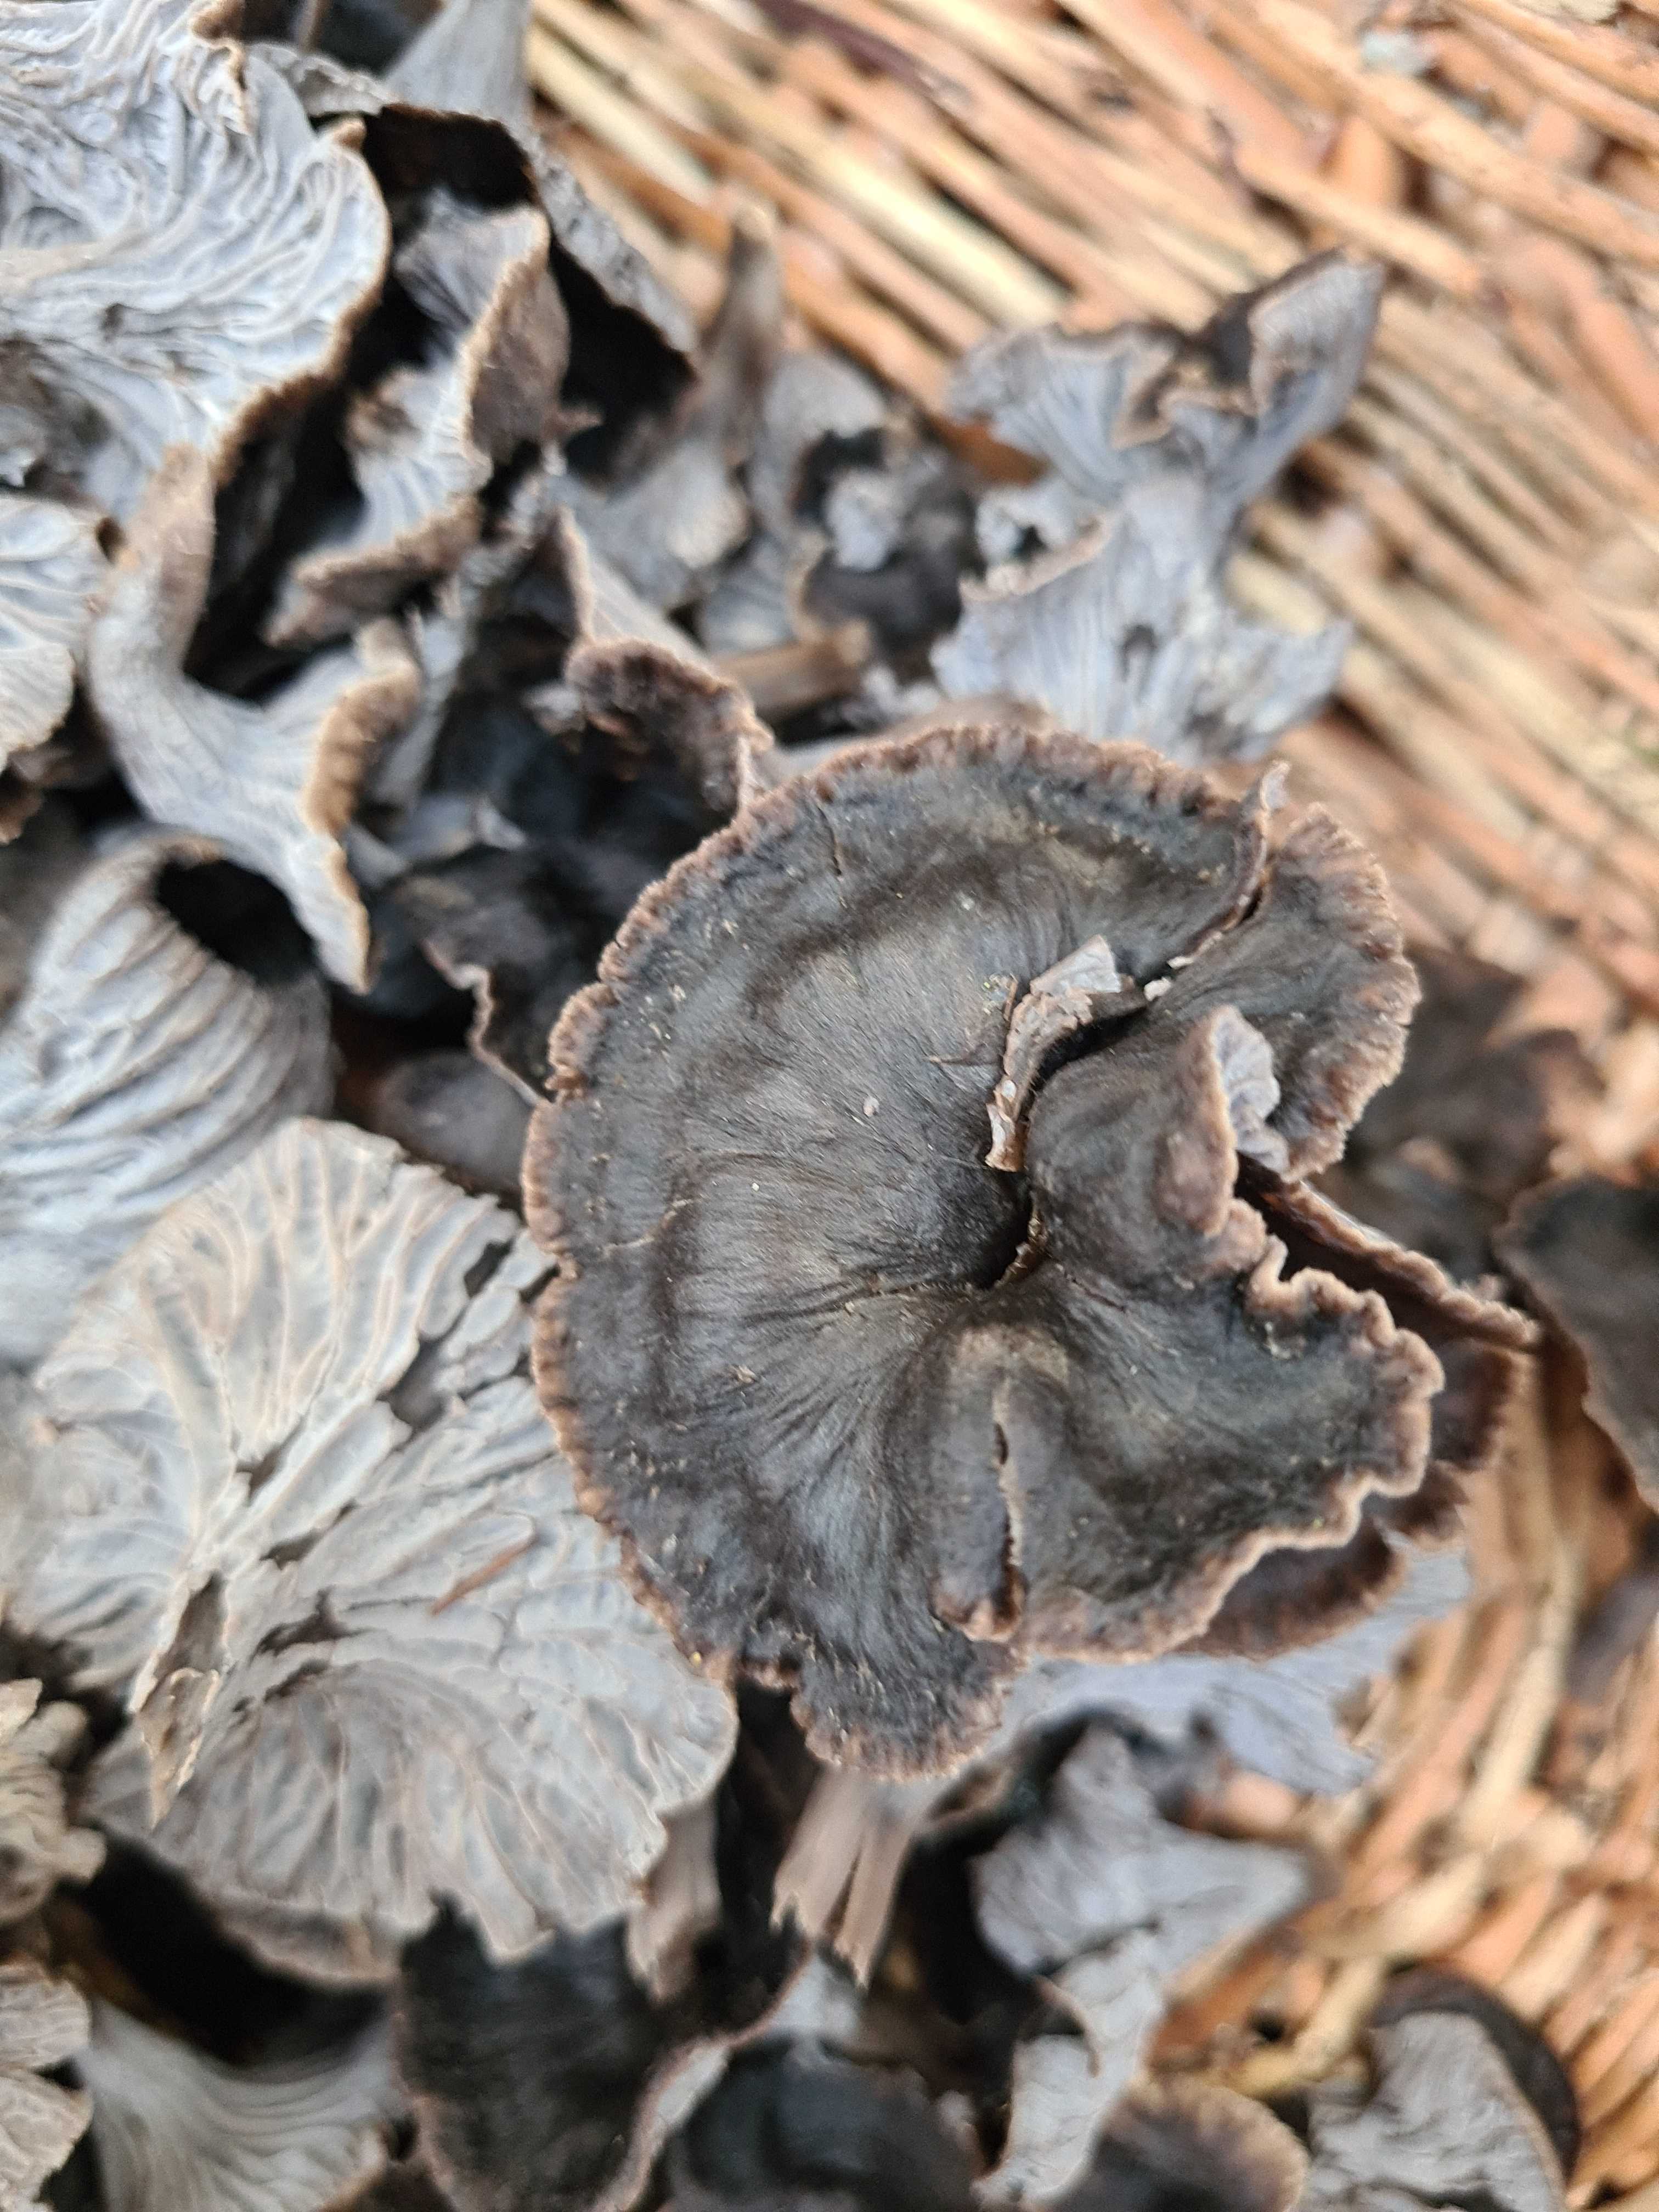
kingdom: Fungi
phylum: Basidiomycota
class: Agaricomycetes
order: Cantharellales
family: Hydnaceae
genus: Cantharellus
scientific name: Cantharellus cinereus
